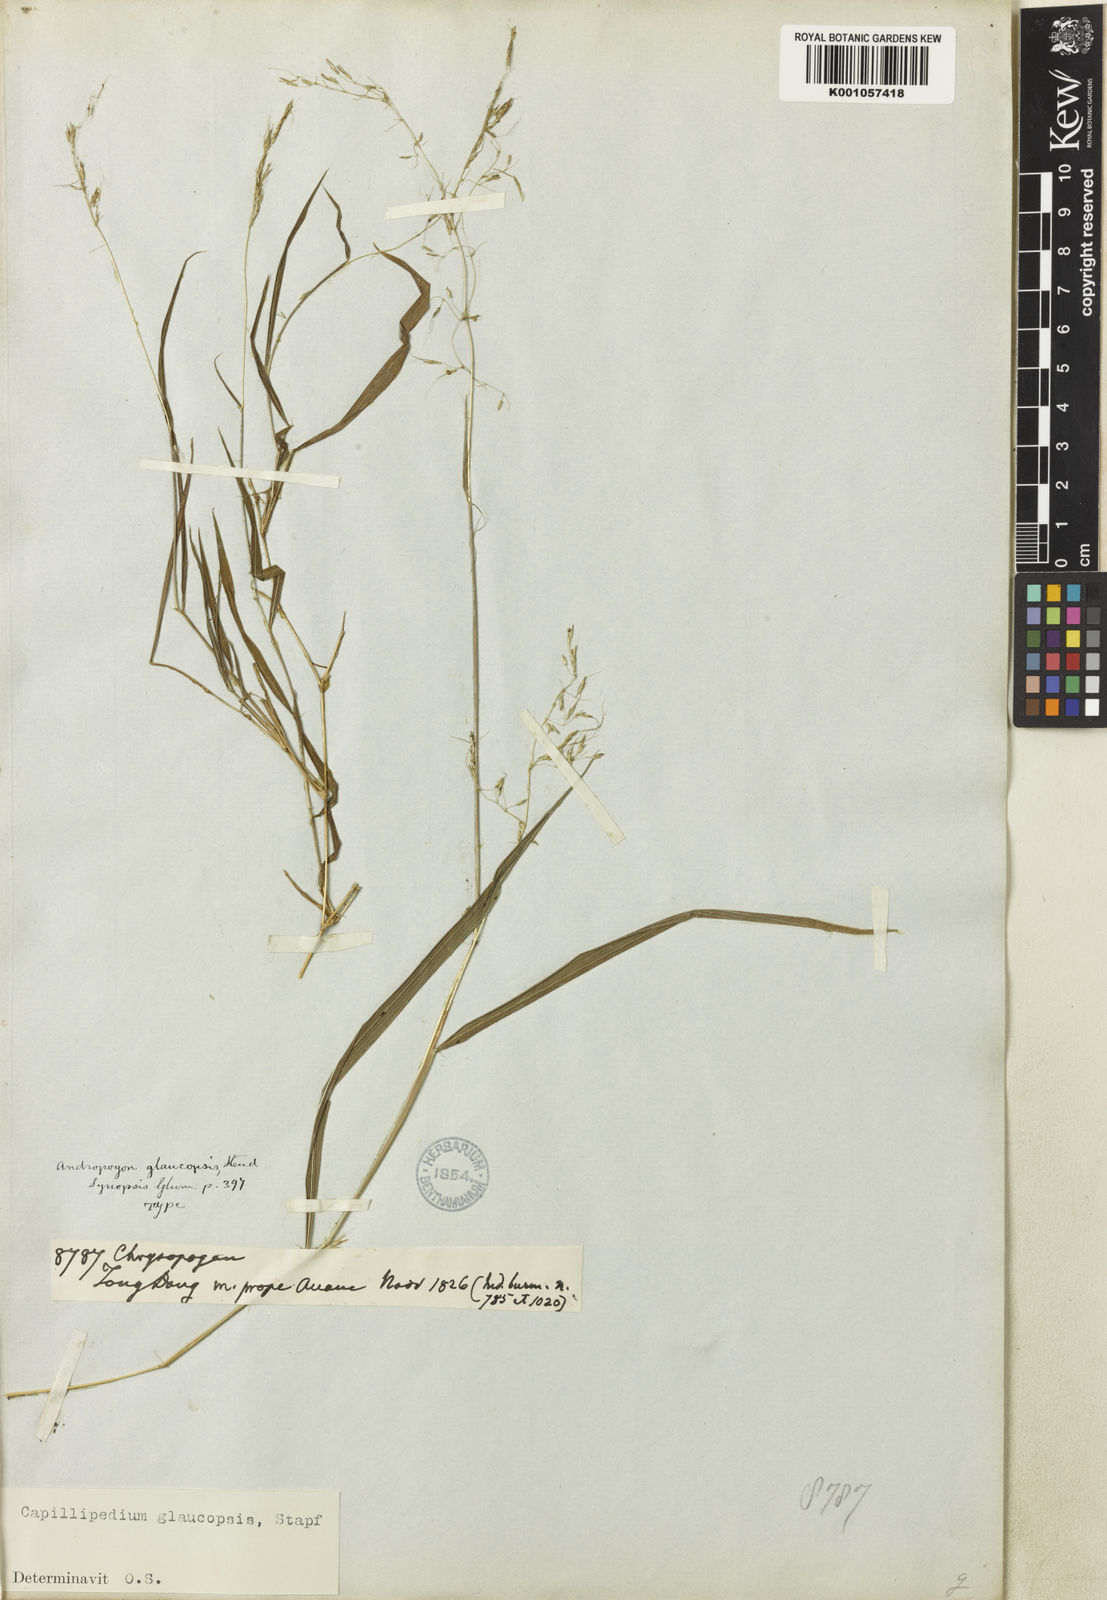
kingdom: Plantae
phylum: Tracheophyta
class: Liliopsida
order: Poales
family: Poaceae
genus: Capillipedium
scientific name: Capillipedium assimile
